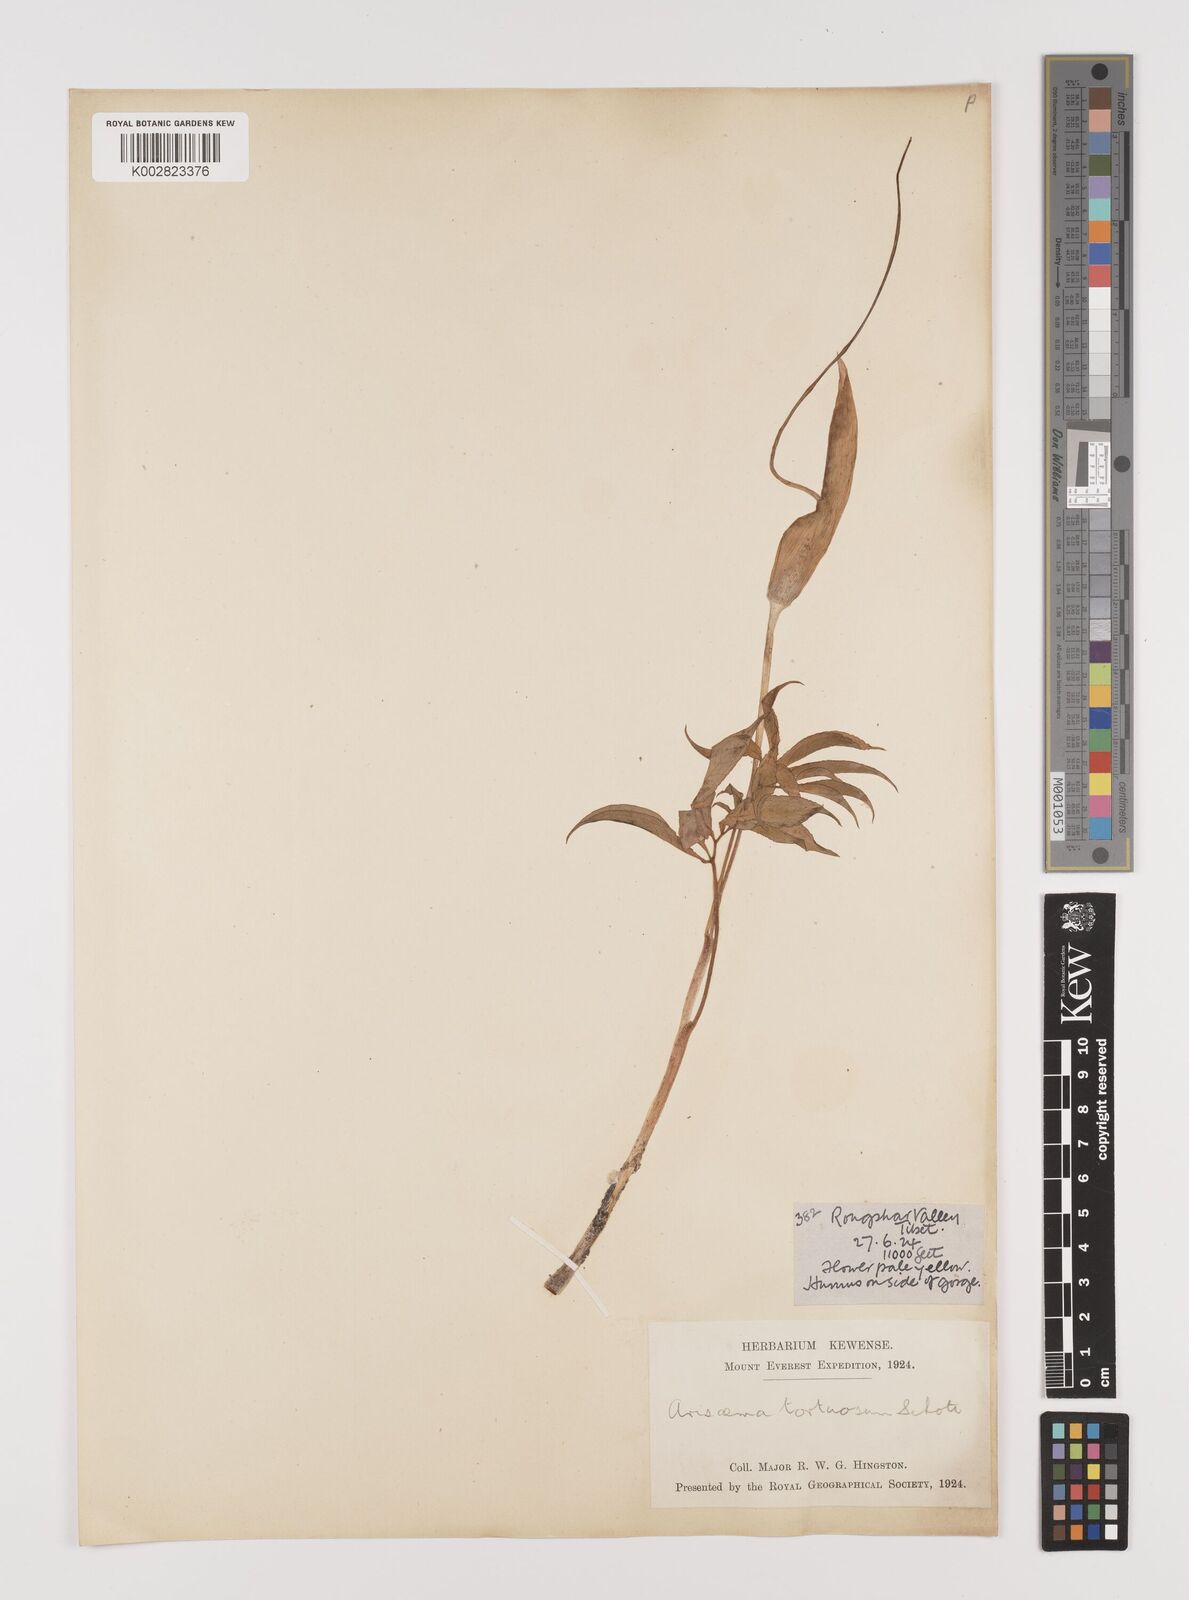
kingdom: Plantae
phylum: Tracheophyta
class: Liliopsida
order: Alismatales
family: Araceae
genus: Arisaema
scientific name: Arisaema tortuosum
